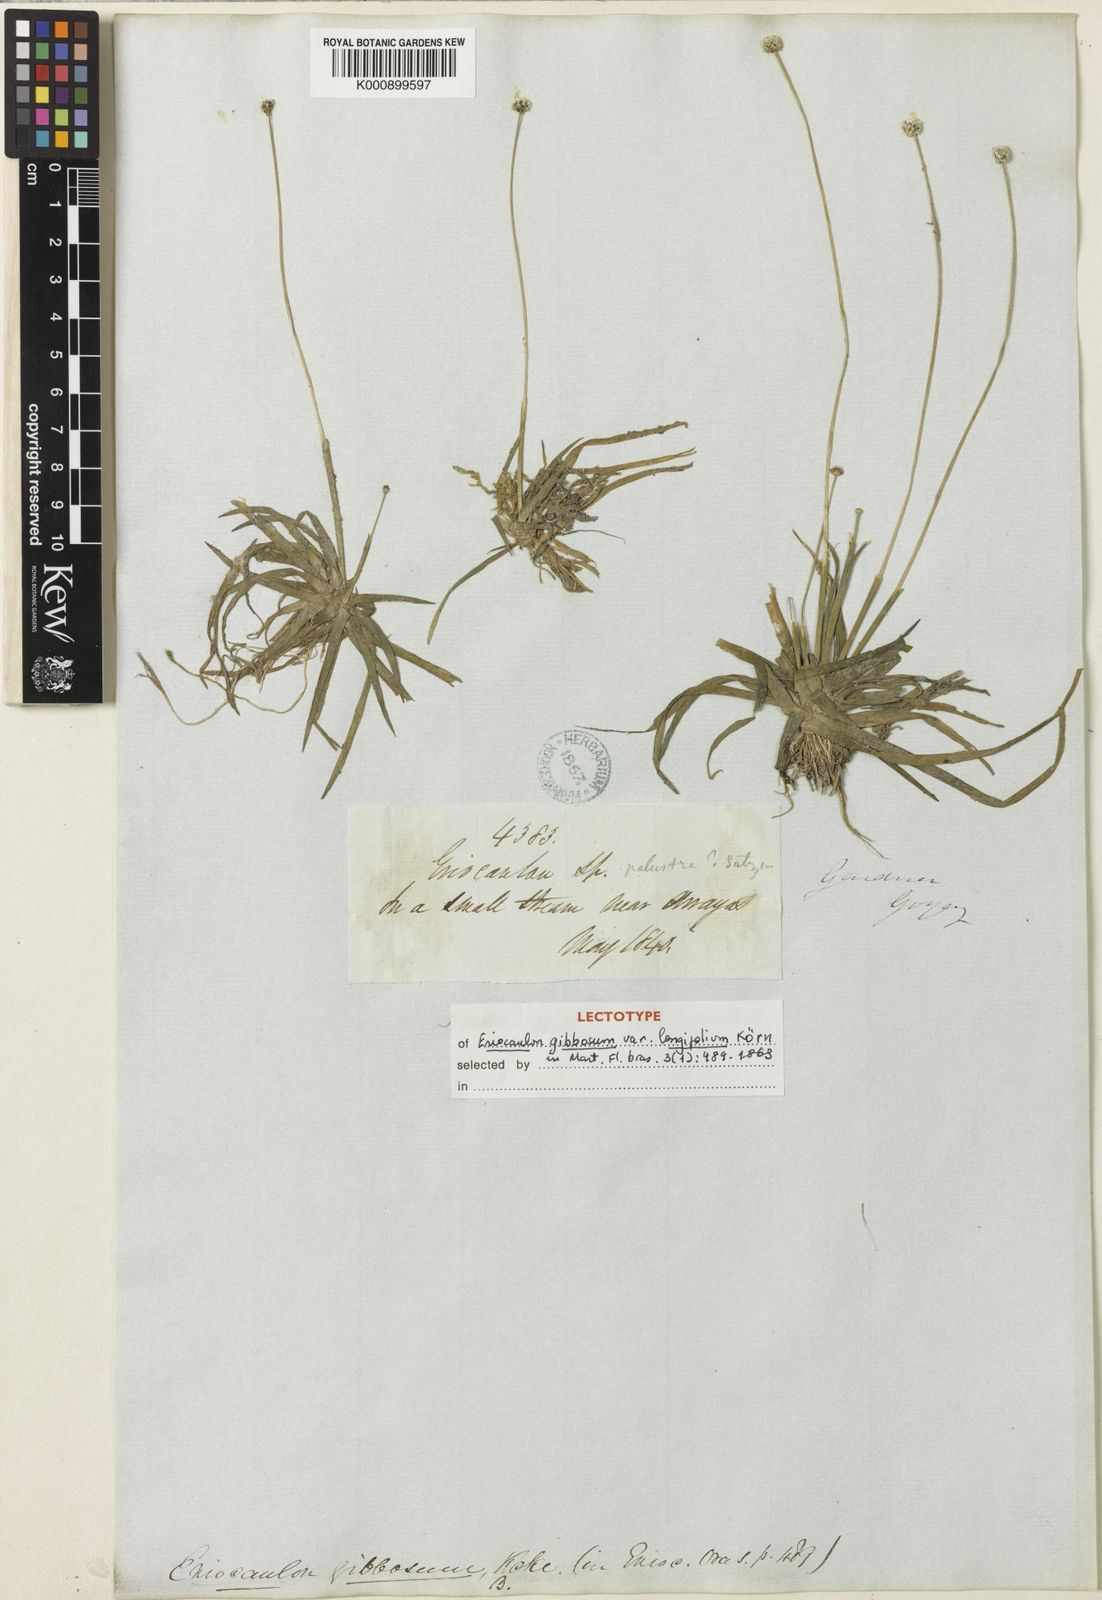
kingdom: Plantae
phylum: Tracheophyta
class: Liliopsida
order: Poales
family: Eriocaulaceae
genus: Eriocaulon
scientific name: Eriocaulon
